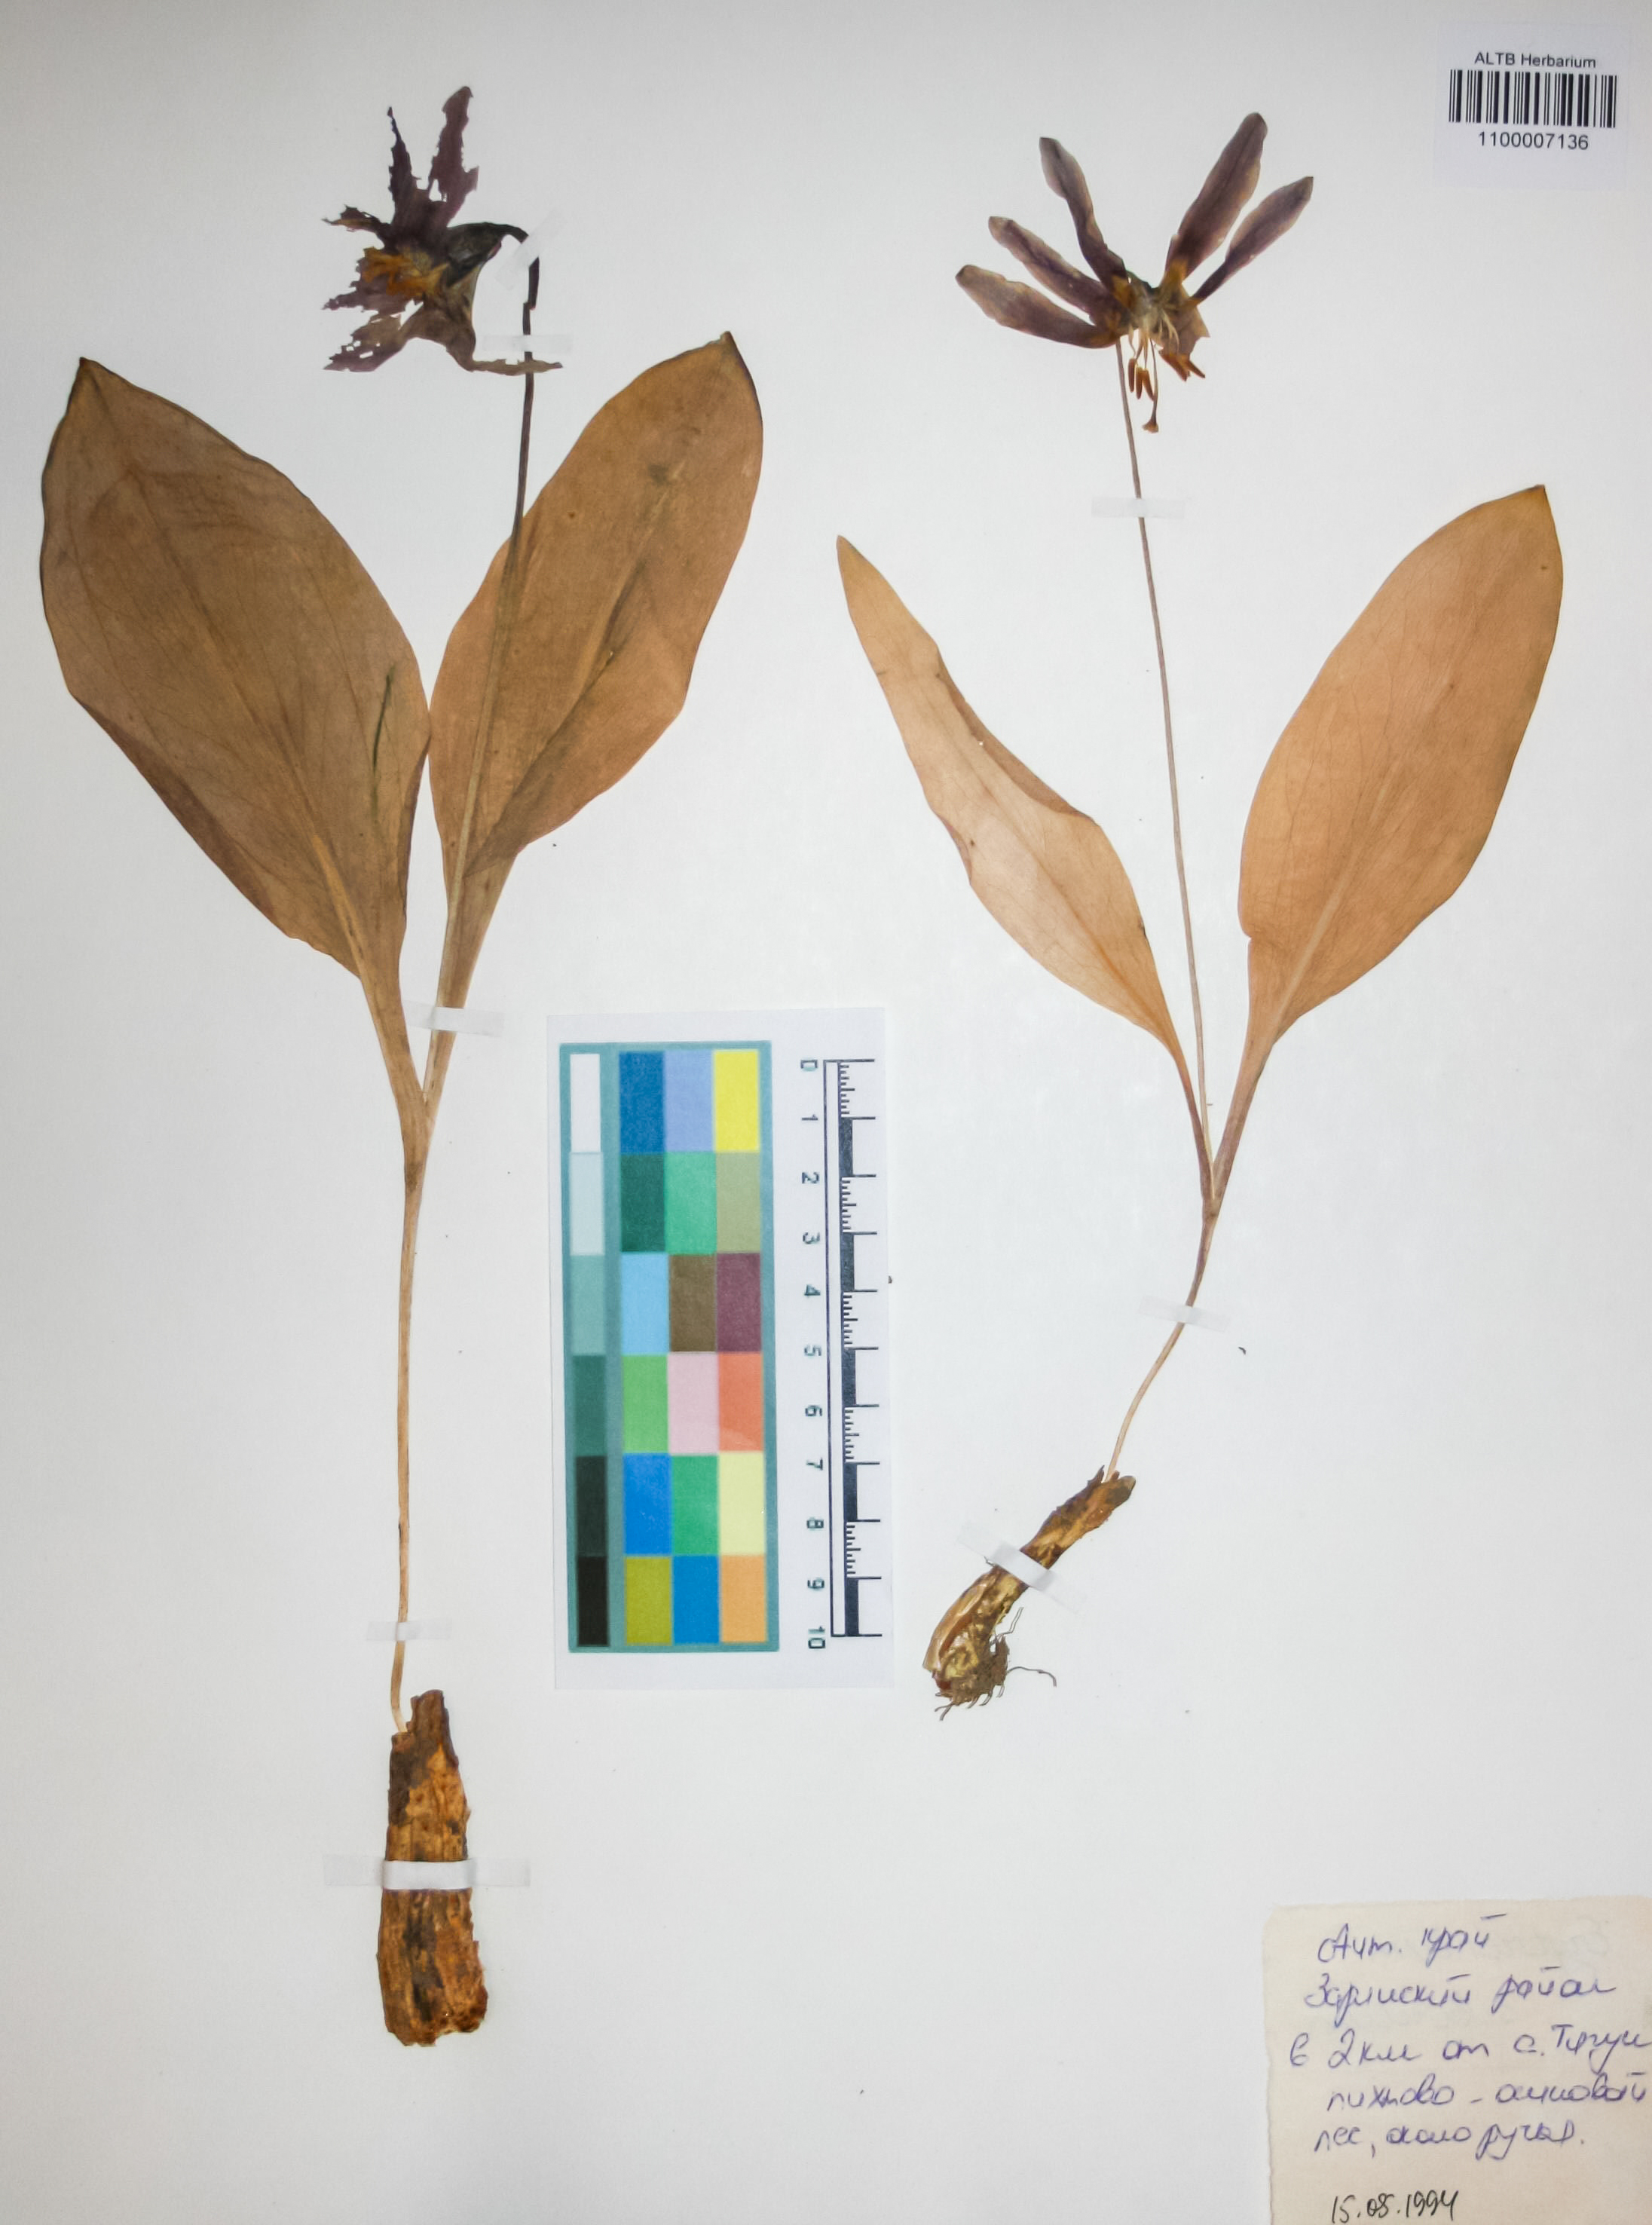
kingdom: Plantae
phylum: Tracheophyta
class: Liliopsida
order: Liliales
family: Liliaceae
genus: Erythronium
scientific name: Erythronium sibiricum
